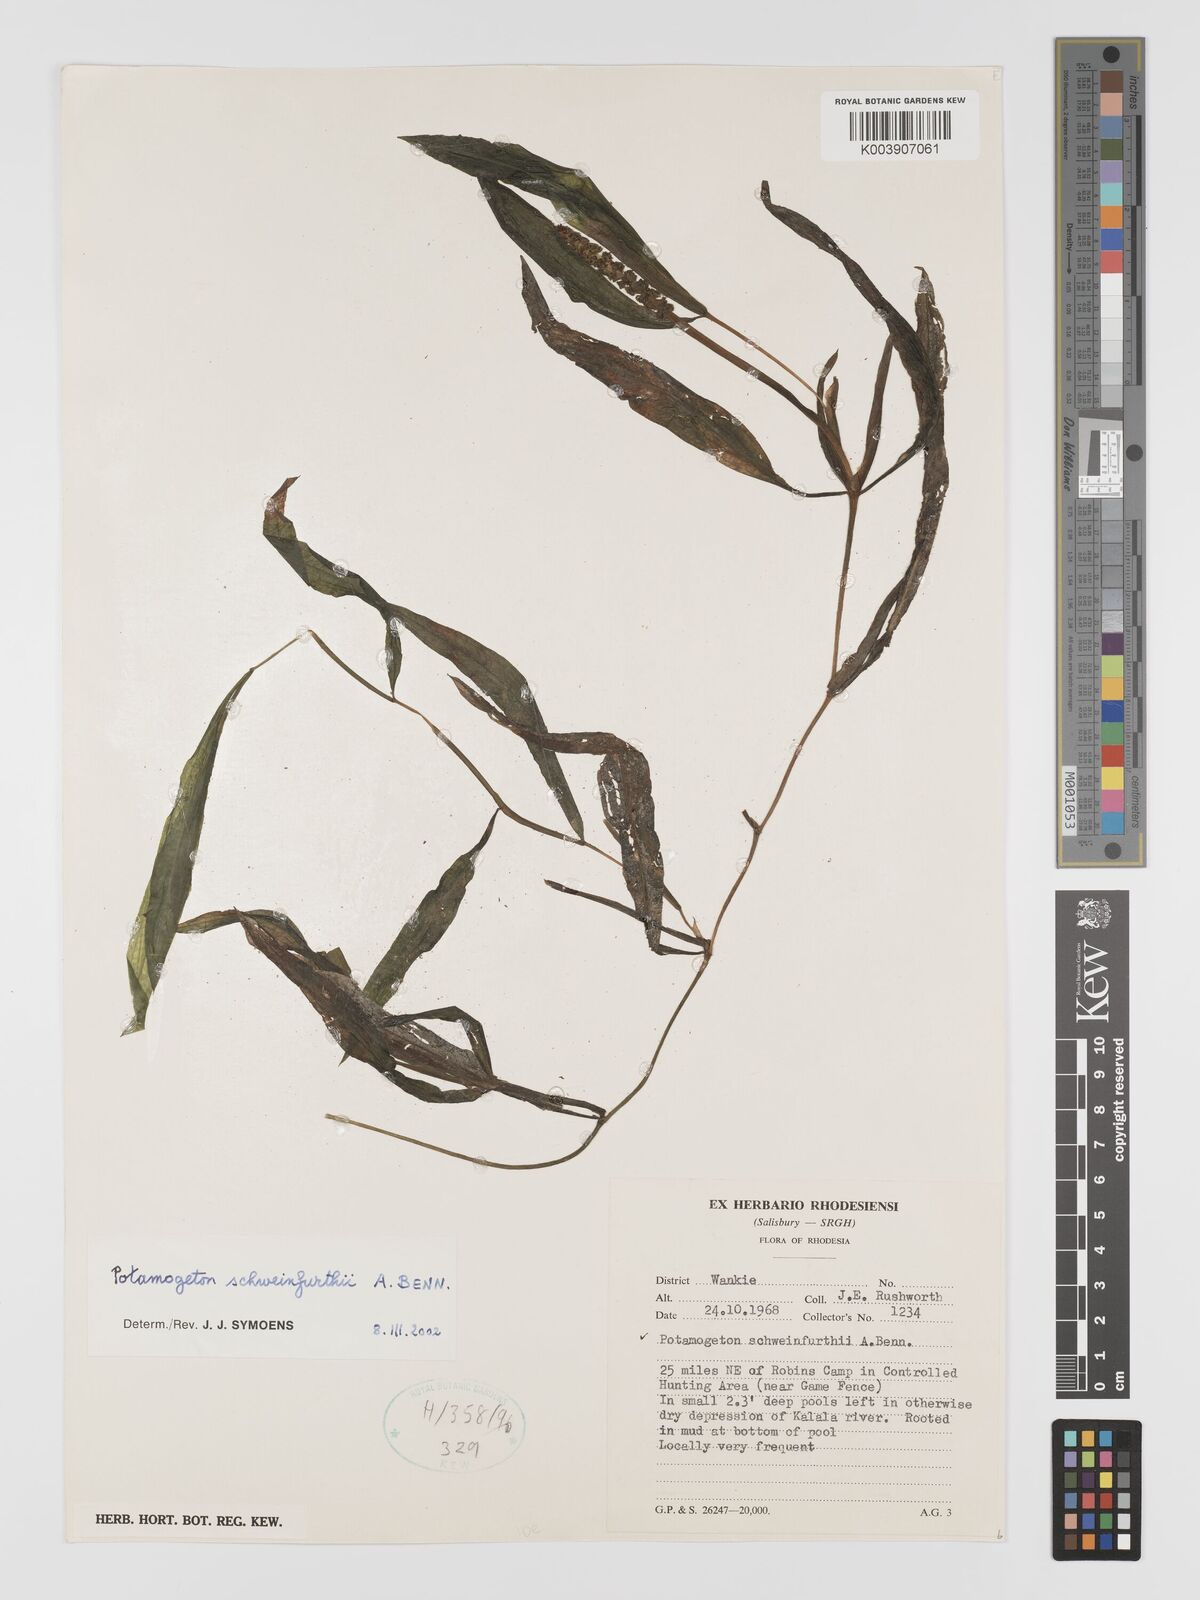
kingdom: Plantae
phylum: Tracheophyta
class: Liliopsida
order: Alismatales
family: Potamogetonaceae
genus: Potamogeton
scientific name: Potamogeton schweinfurthii
